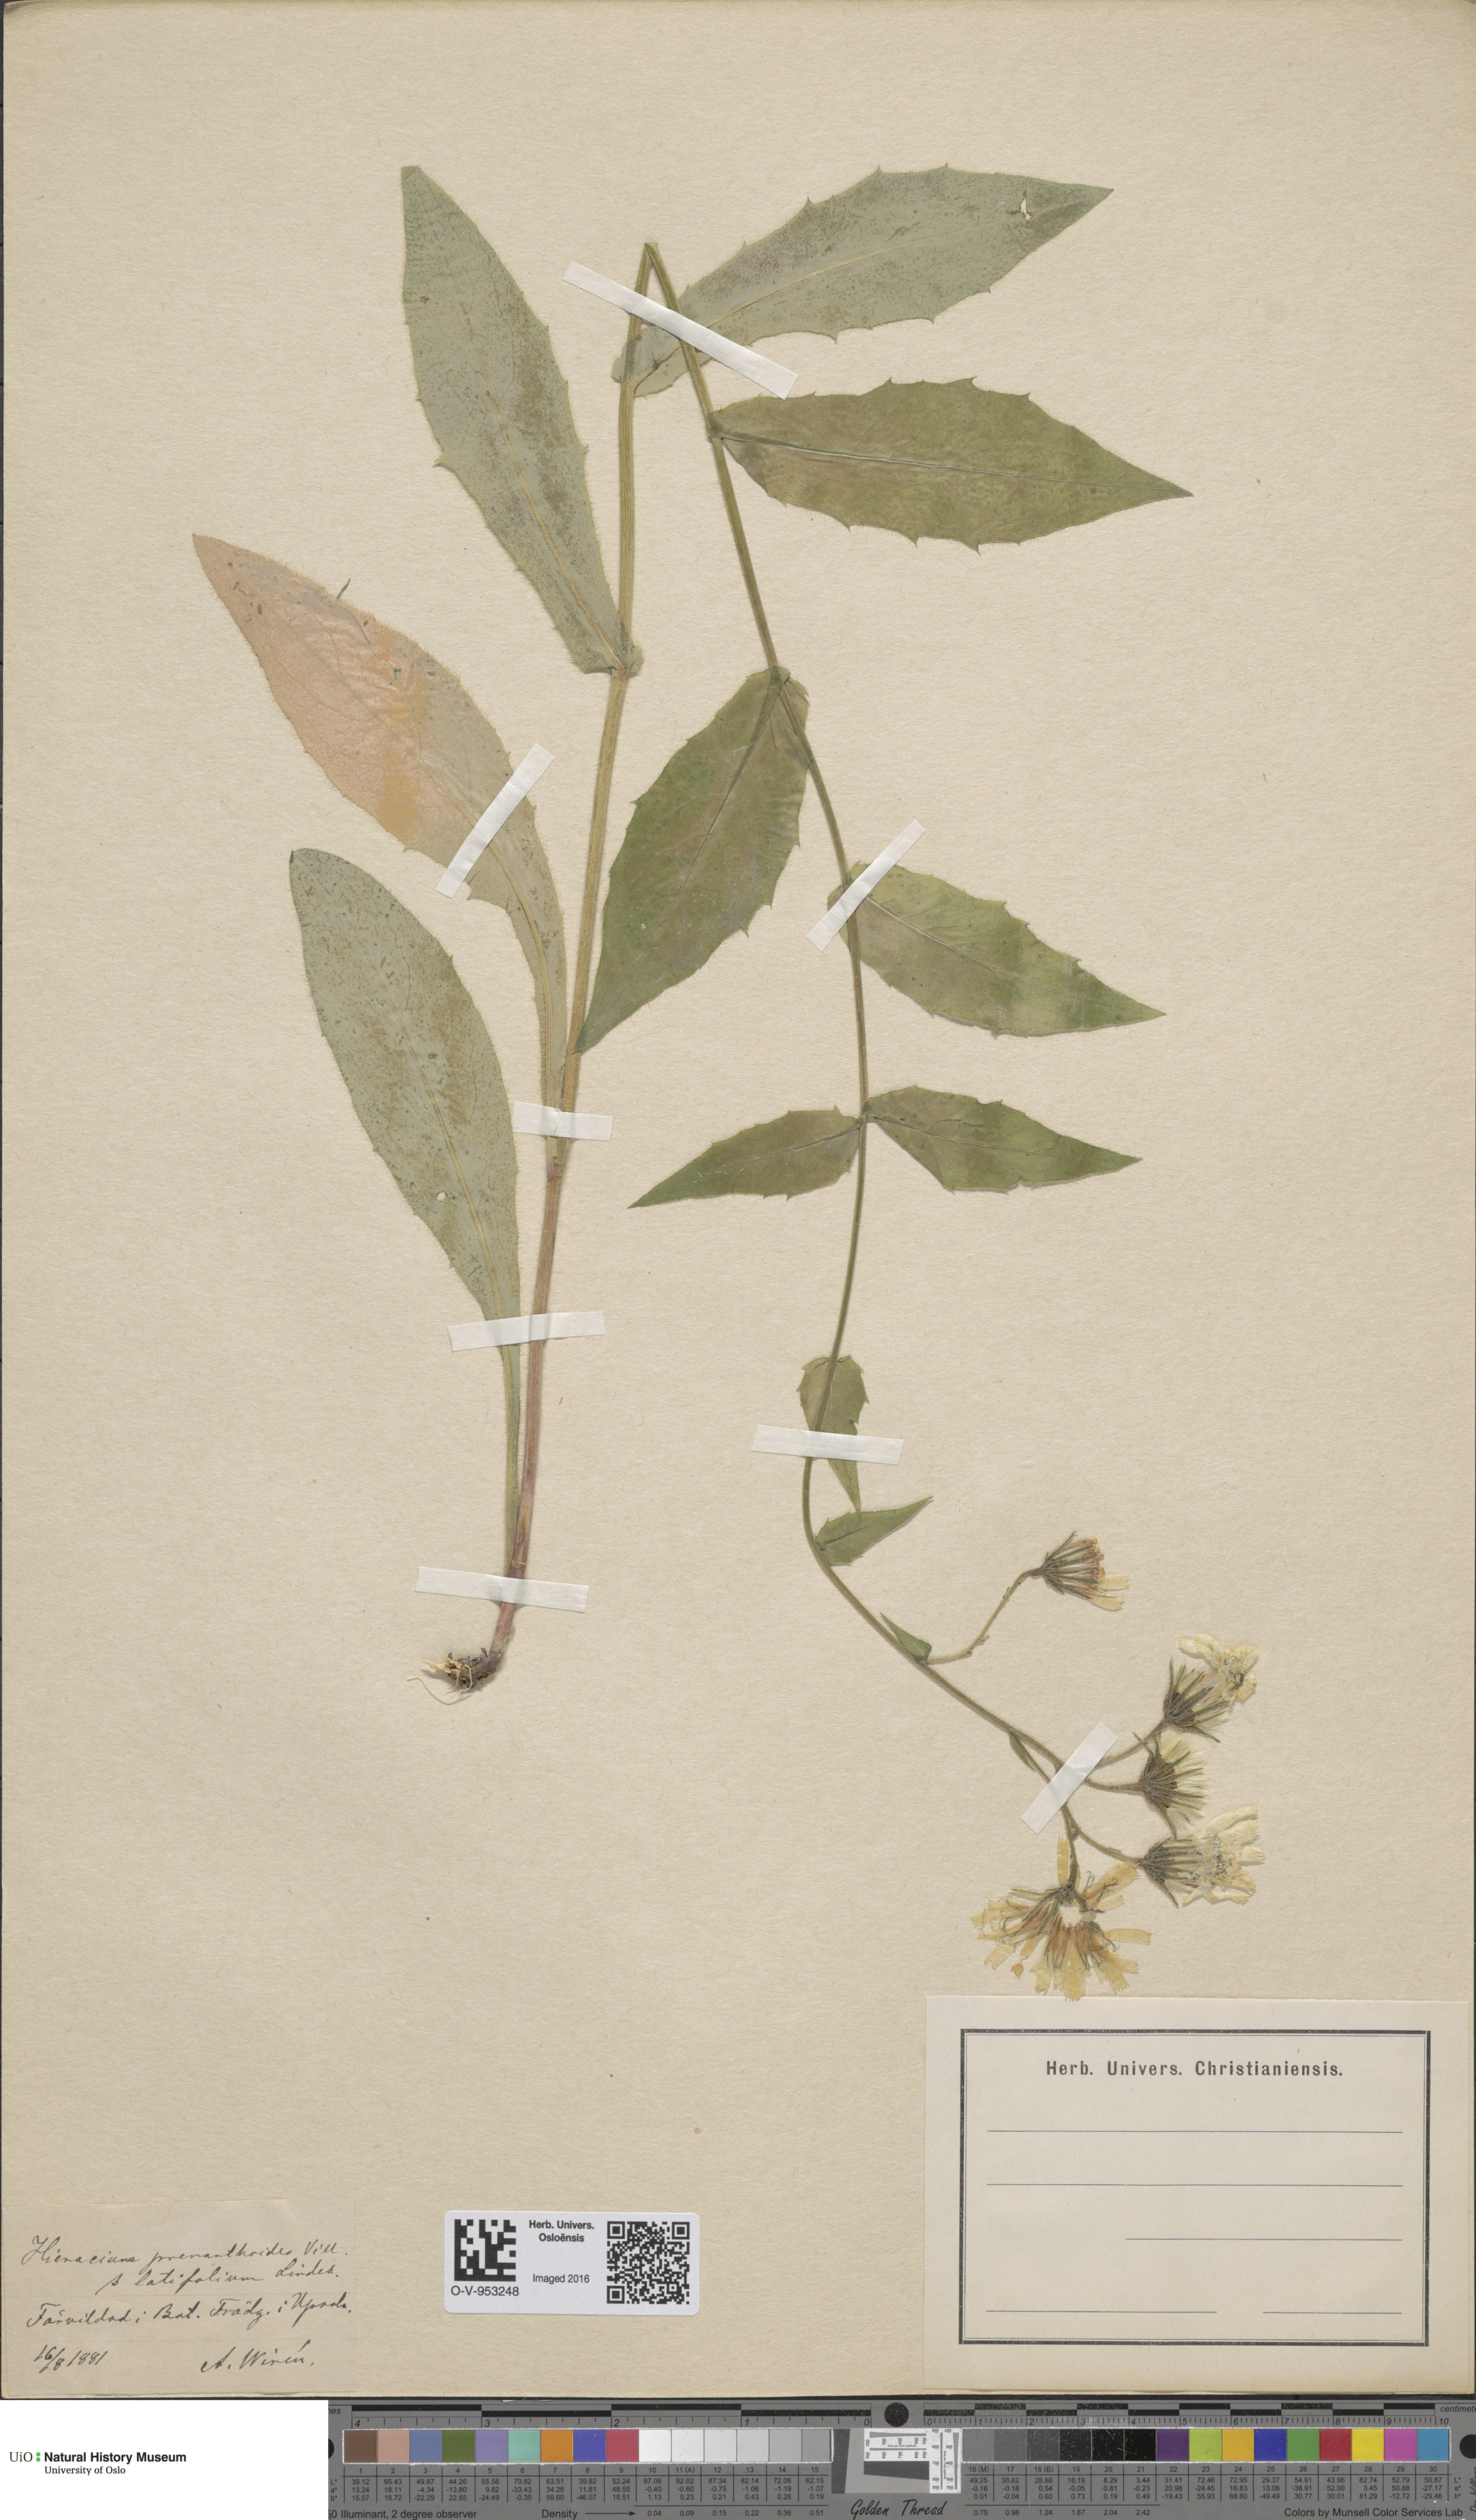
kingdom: Plantae
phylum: Tracheophyta
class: Magnoliopsida
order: Asterales
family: Asteraceae
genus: Hieracium
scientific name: Hieracium prenanthoides
